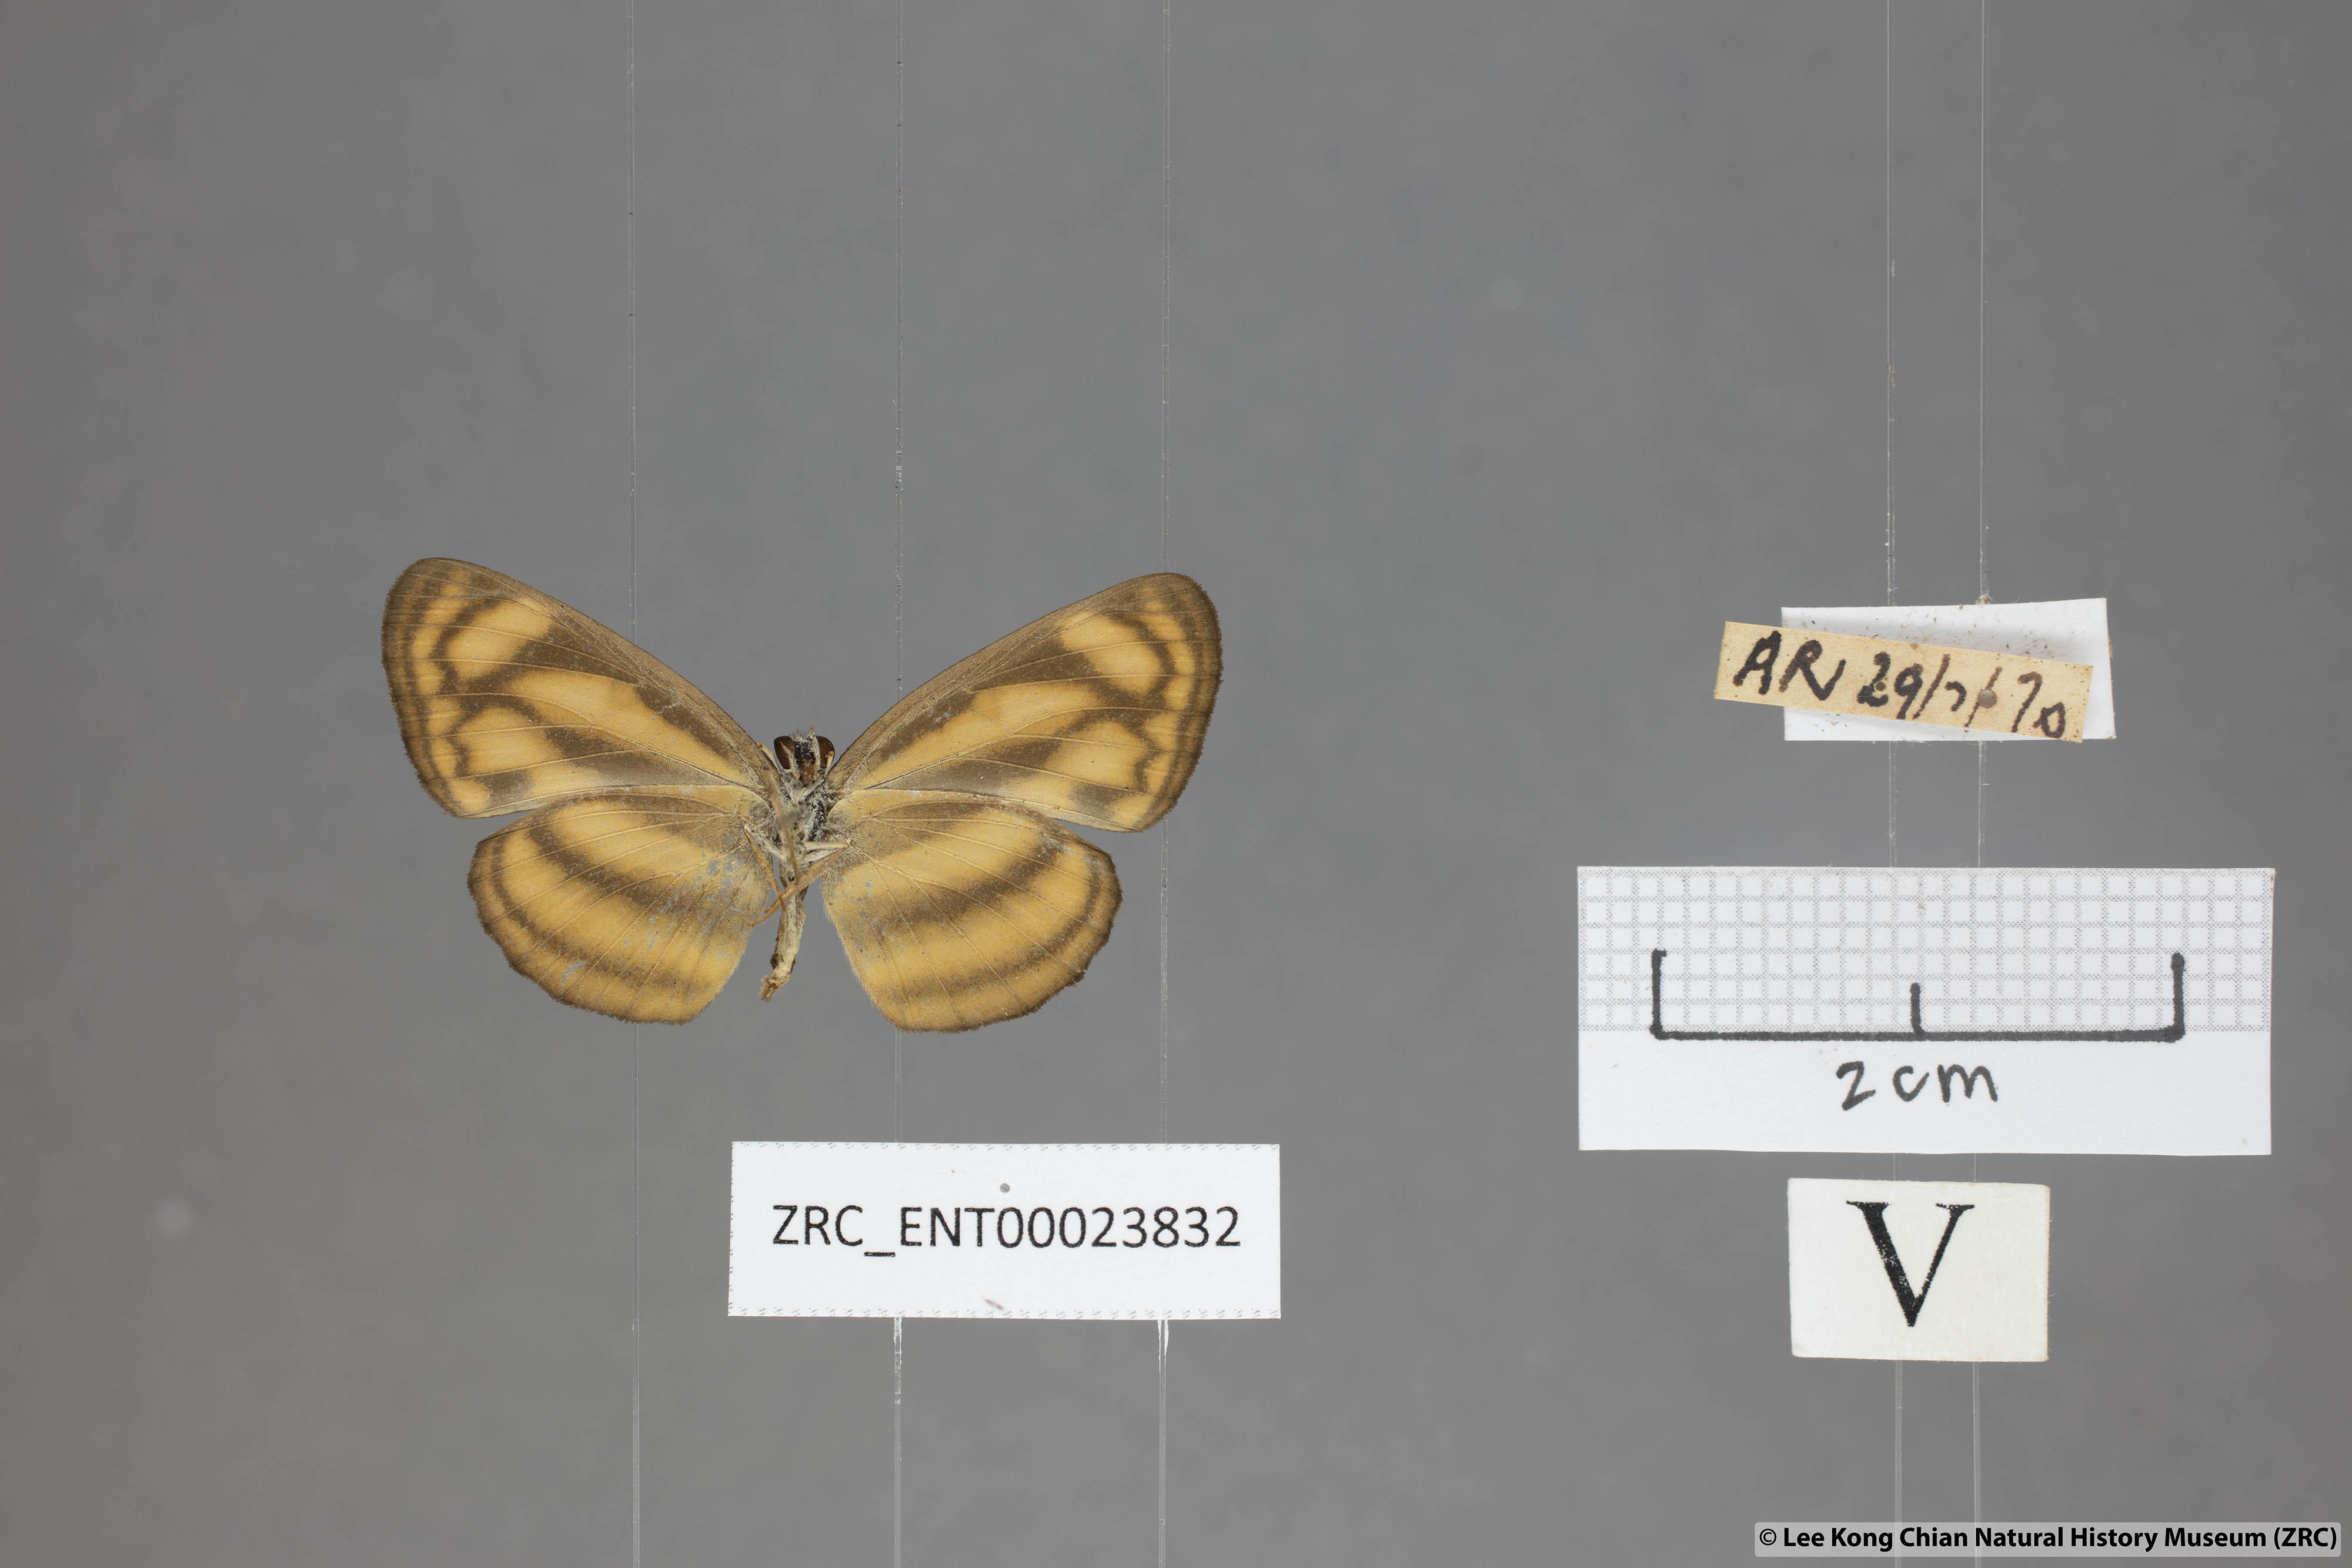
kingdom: Animalia
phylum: Arthropoda
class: Insecta
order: Lepidoptera
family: Nymphalidae
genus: Lasippa
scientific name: Lasippa heliodore
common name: Burmese lascar
